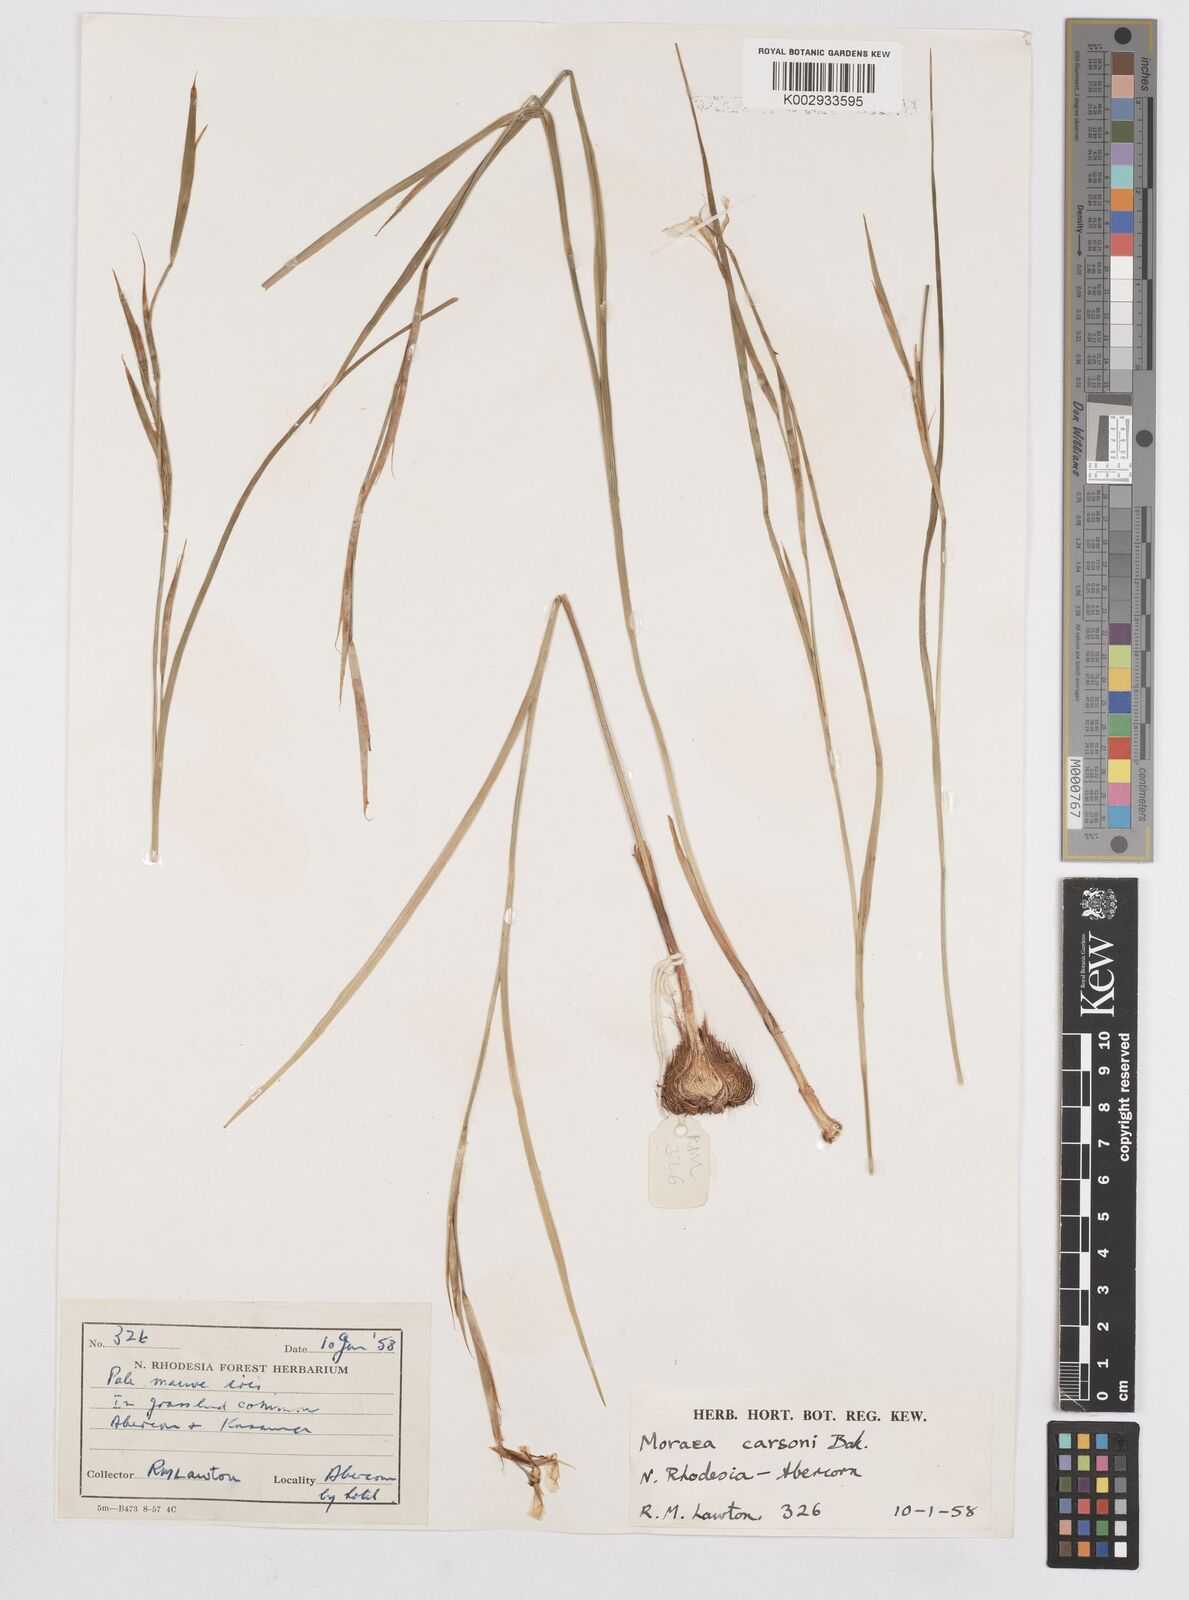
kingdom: Plantae
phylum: Tracheophyta
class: Liliopsida
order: Asparagales
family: Iridaceae
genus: Moraea
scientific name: Moraea carsonii
